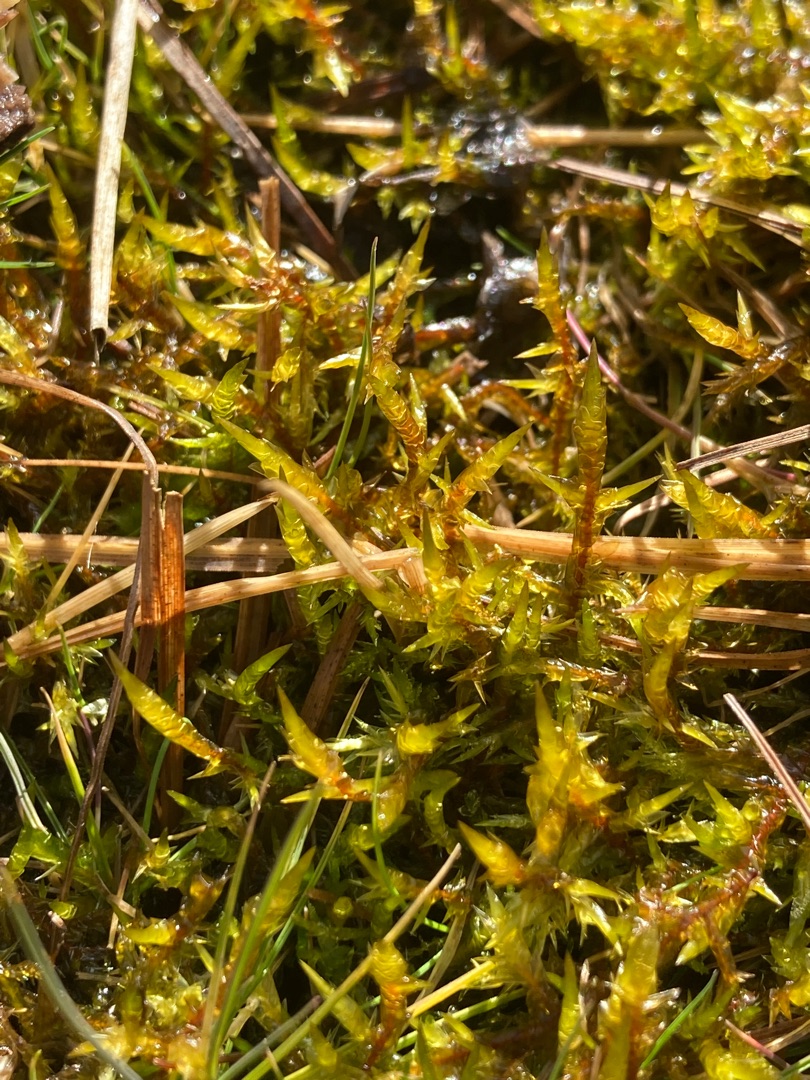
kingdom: Plantae
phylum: Bryophyta
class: Bryopsida
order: Hypnales
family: Pylaisiaceae
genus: Calliergonella
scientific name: Calliergonella cuspidata
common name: Spids spydmos
